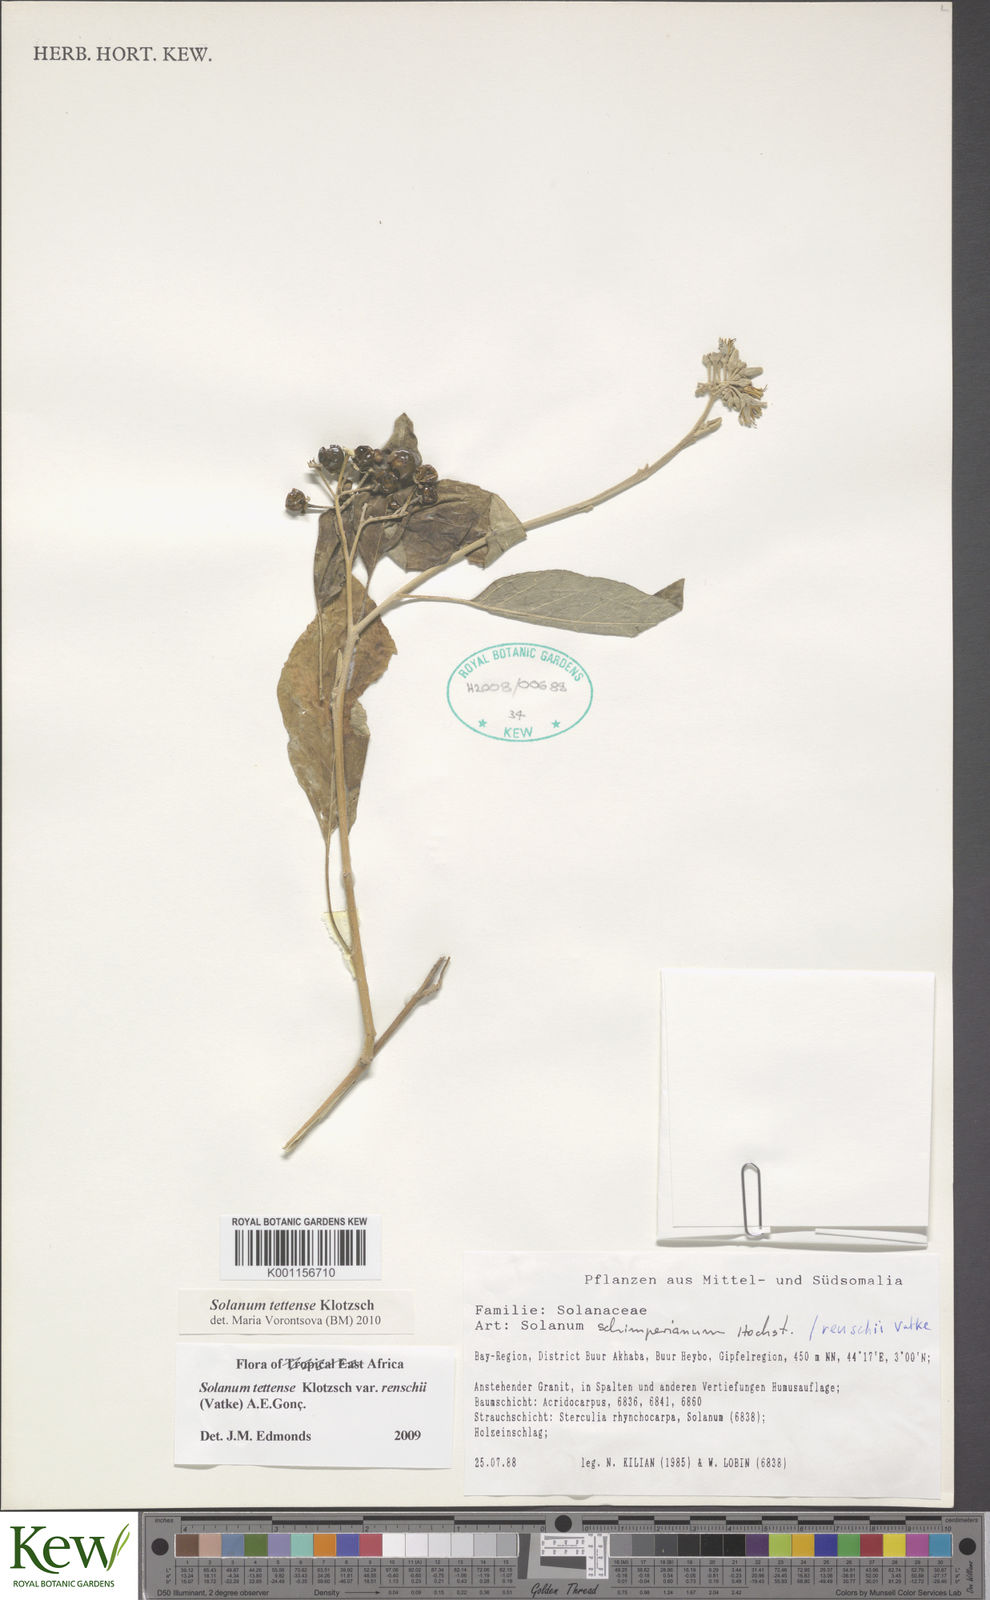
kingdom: Plantae
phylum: Tracheophyta
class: Magnoliopsida
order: Solanales
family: Solanaceae
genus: Solanum
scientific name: Solanum tettense
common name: Mozambique bitter apple
